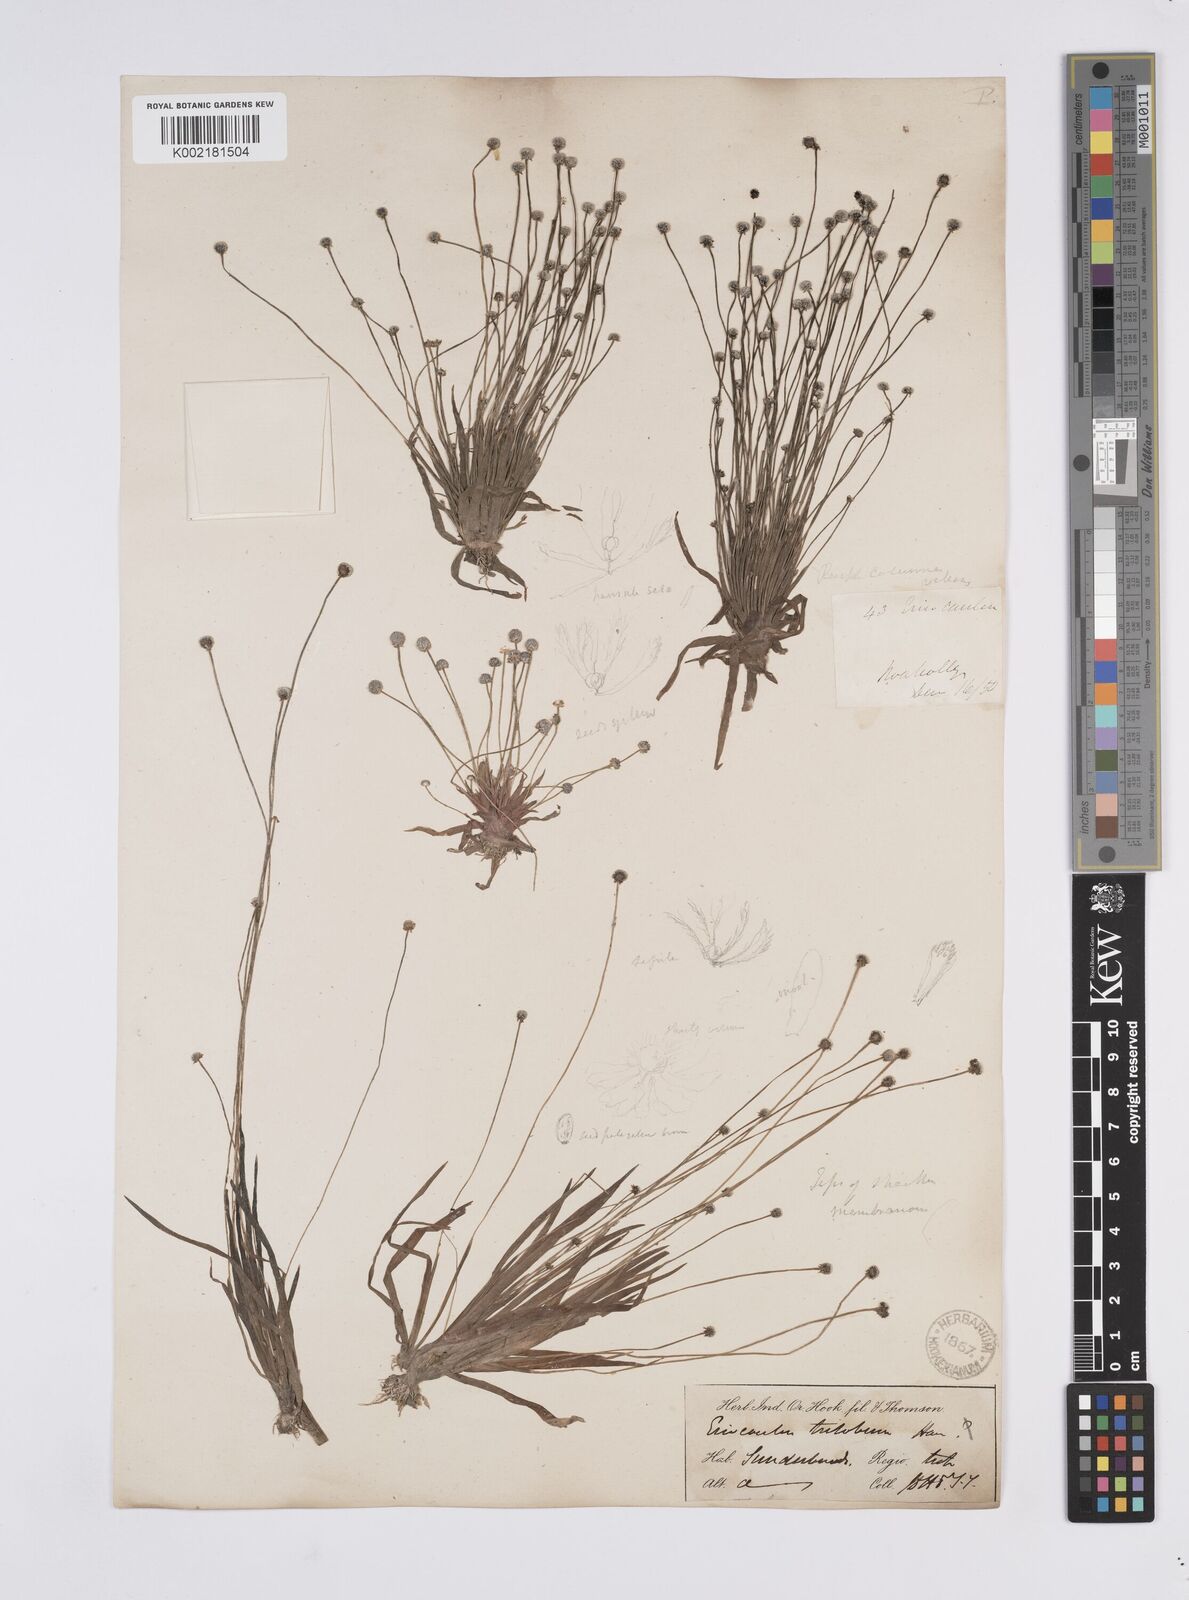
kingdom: Plantae
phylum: Tracheophyta
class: Liliopsida
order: Poales
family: Eriocaulaceae
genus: Eriocaulon
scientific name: Eriocaulon sollyanum
